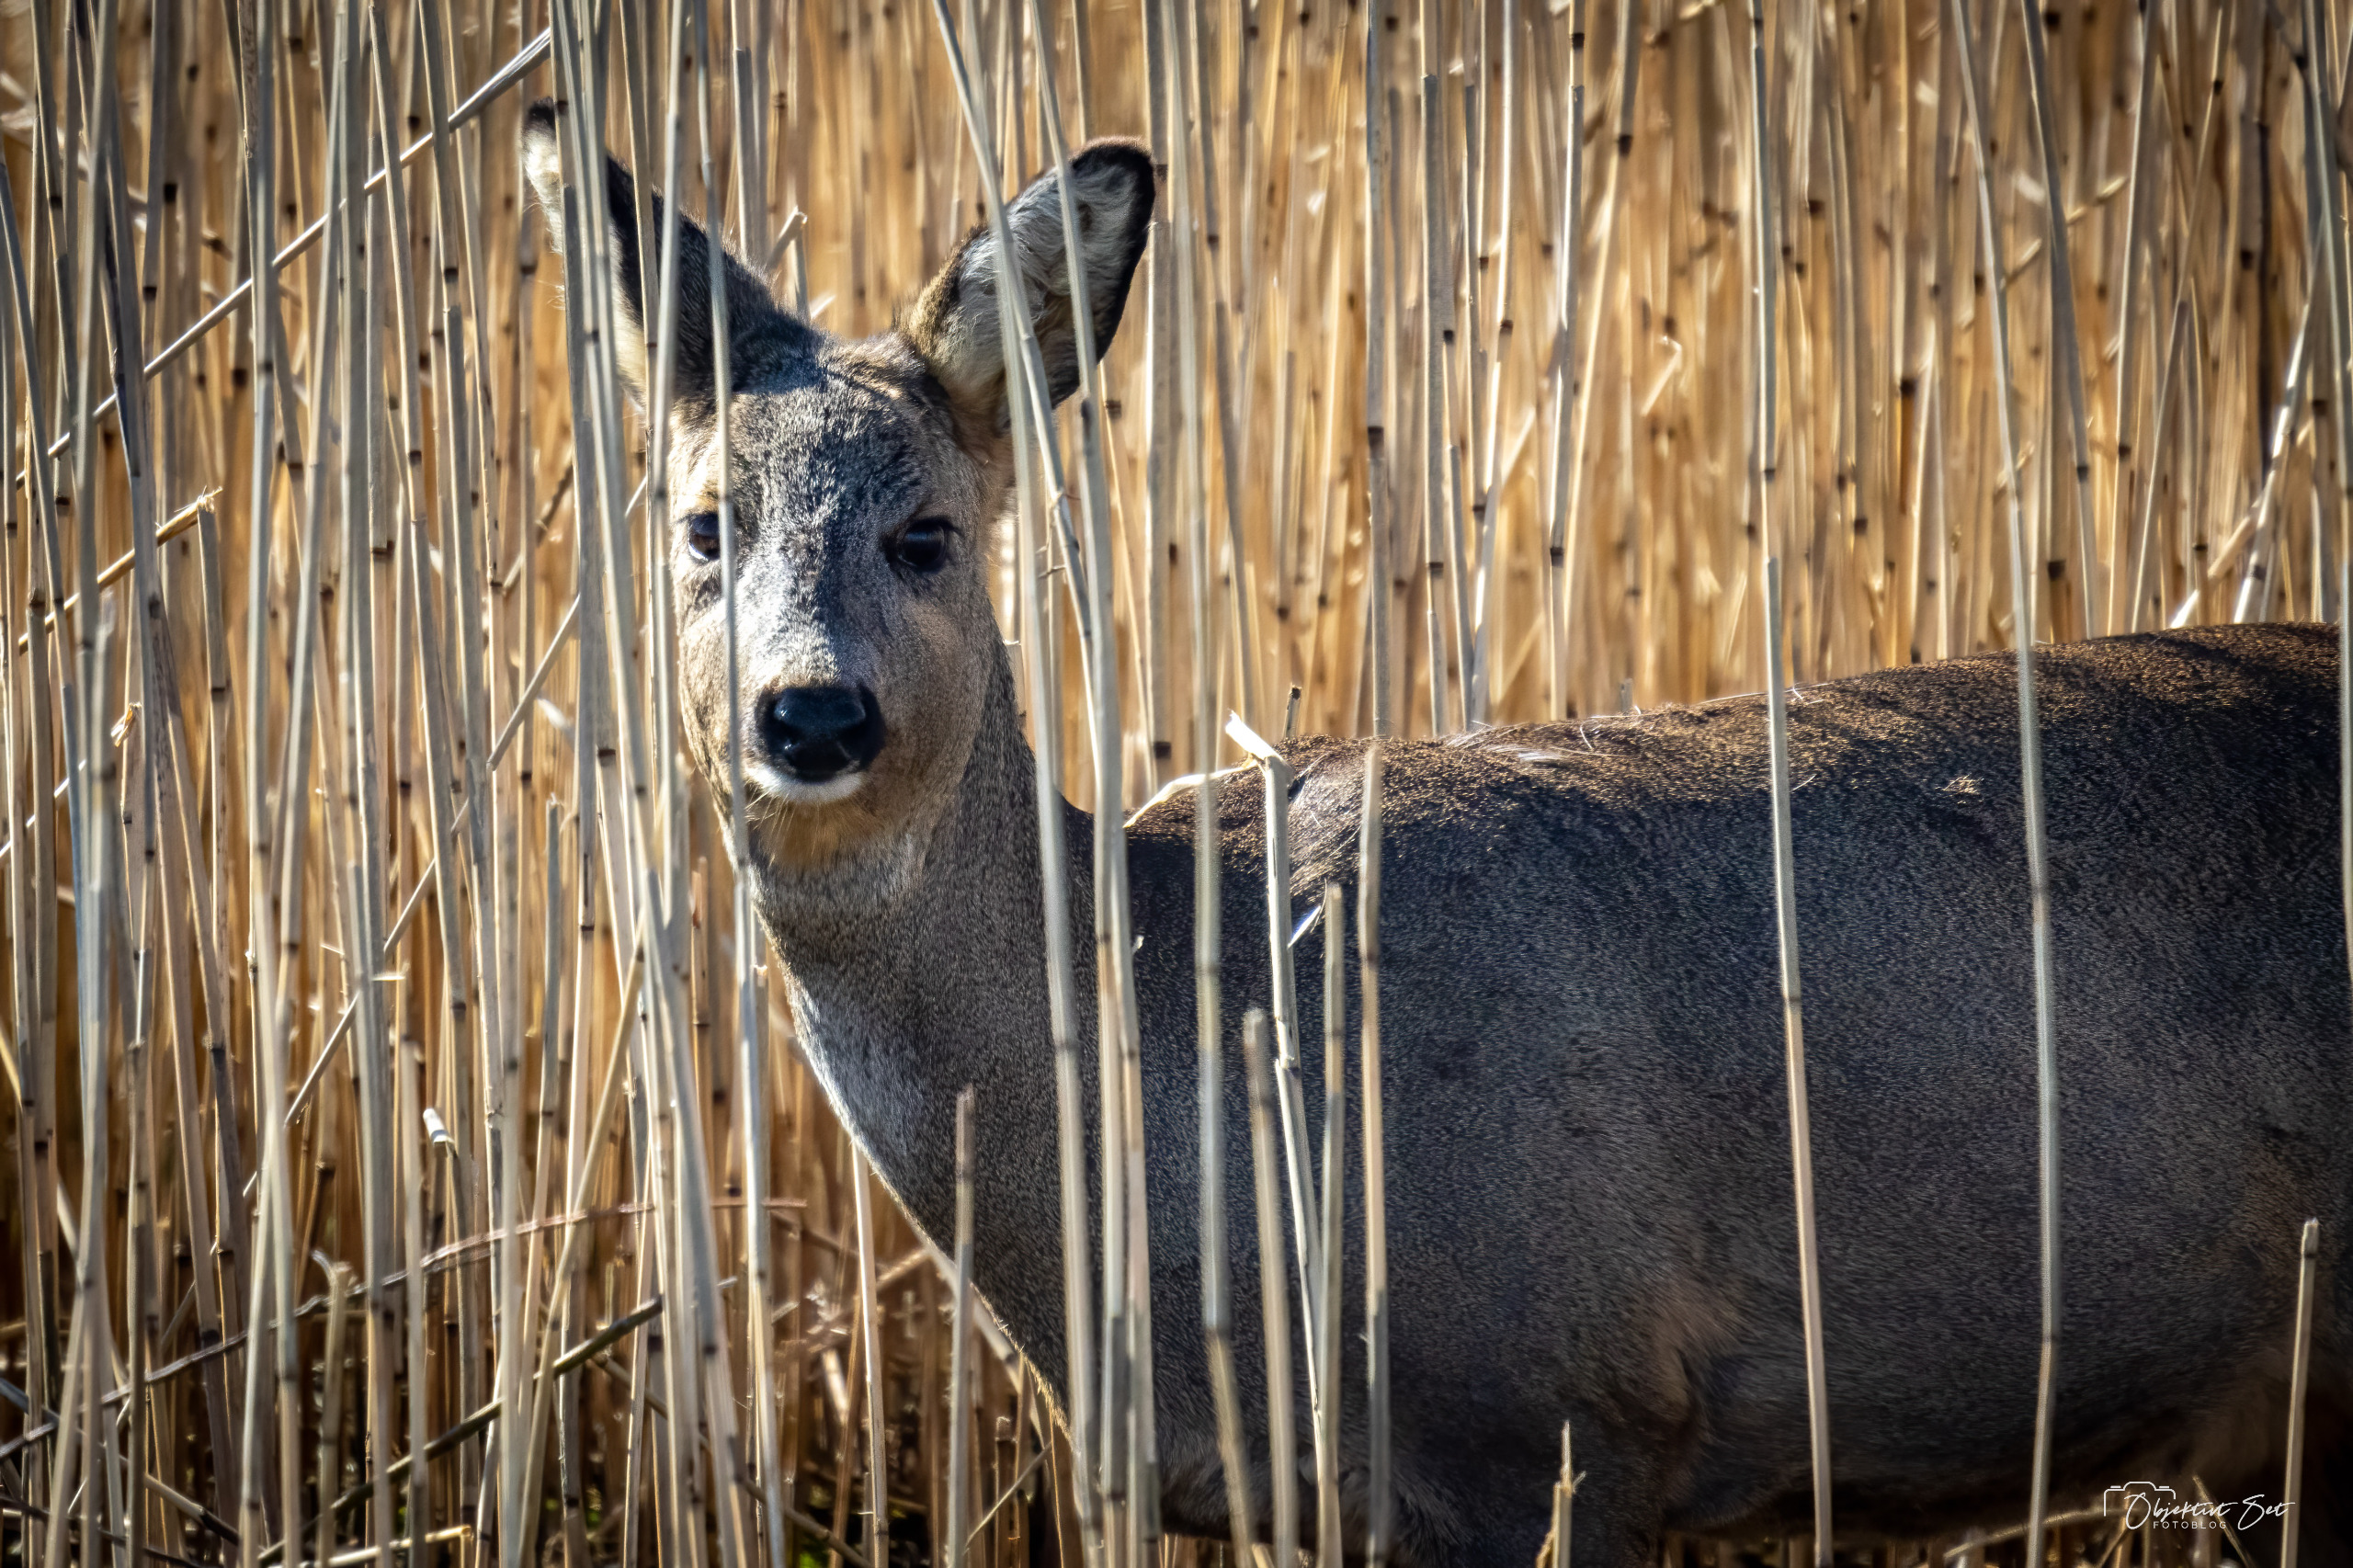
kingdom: Animalia
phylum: Chordata
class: Mammalia
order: Artiodactyla
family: Cervidae
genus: Capreolus
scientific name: Capreolus capreolus
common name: Rådyr
